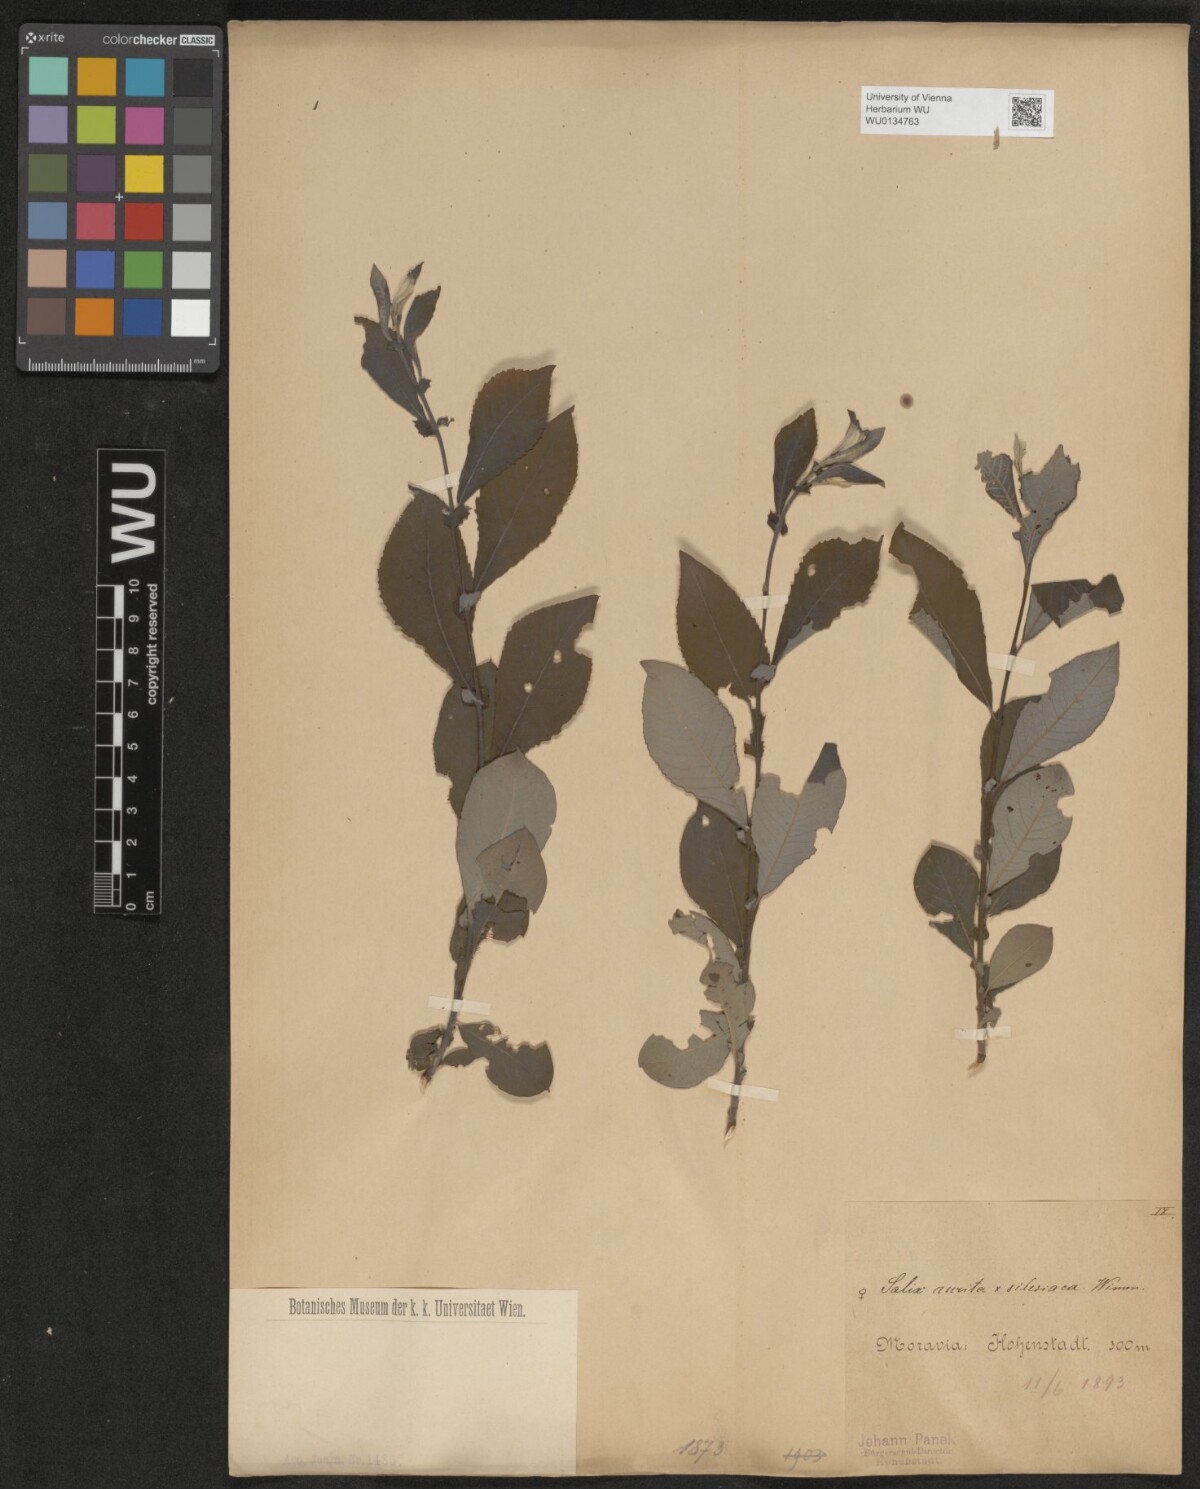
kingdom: Plantae
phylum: Tracheophyta
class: Magnoliopsida
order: Malpighiales
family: Salicaceae
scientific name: Salicaceae
